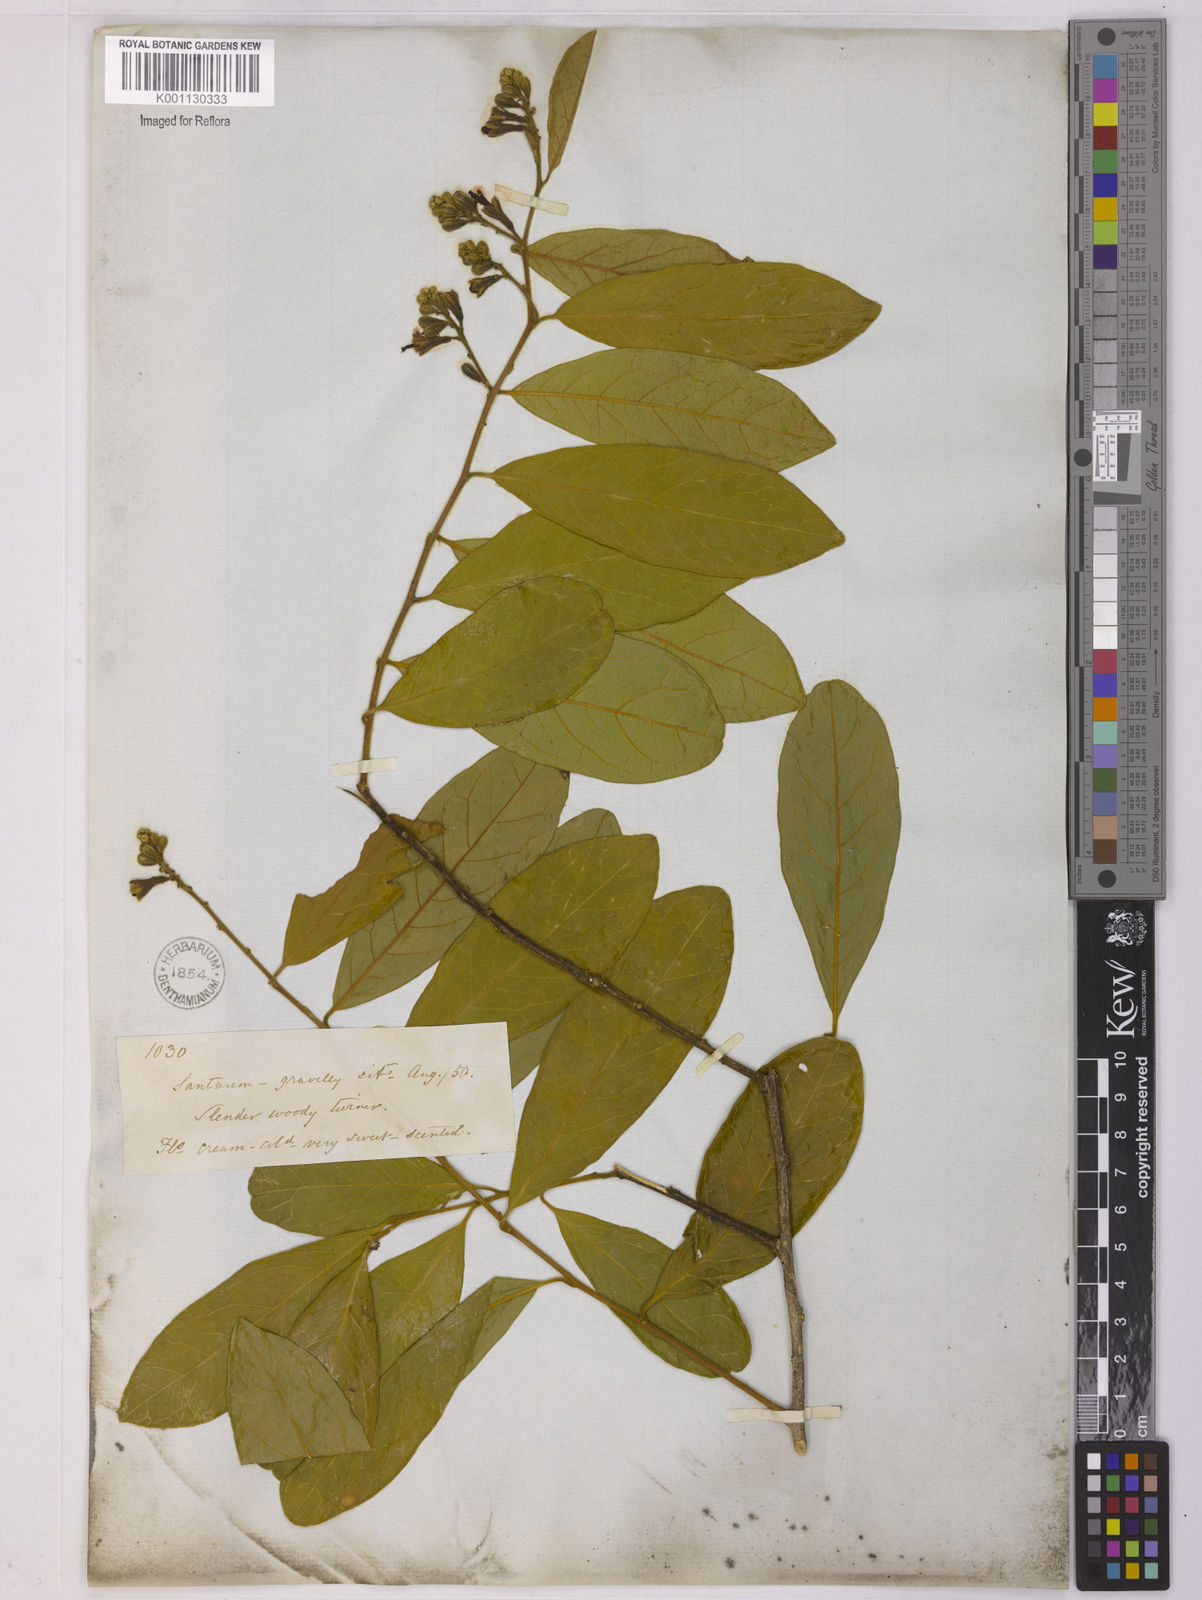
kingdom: Plantae
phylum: Tracheophyta
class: Magnoliopsida
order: Fabales
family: Polygalaceae
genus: Diclidanthera
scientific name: Diclidanthera
